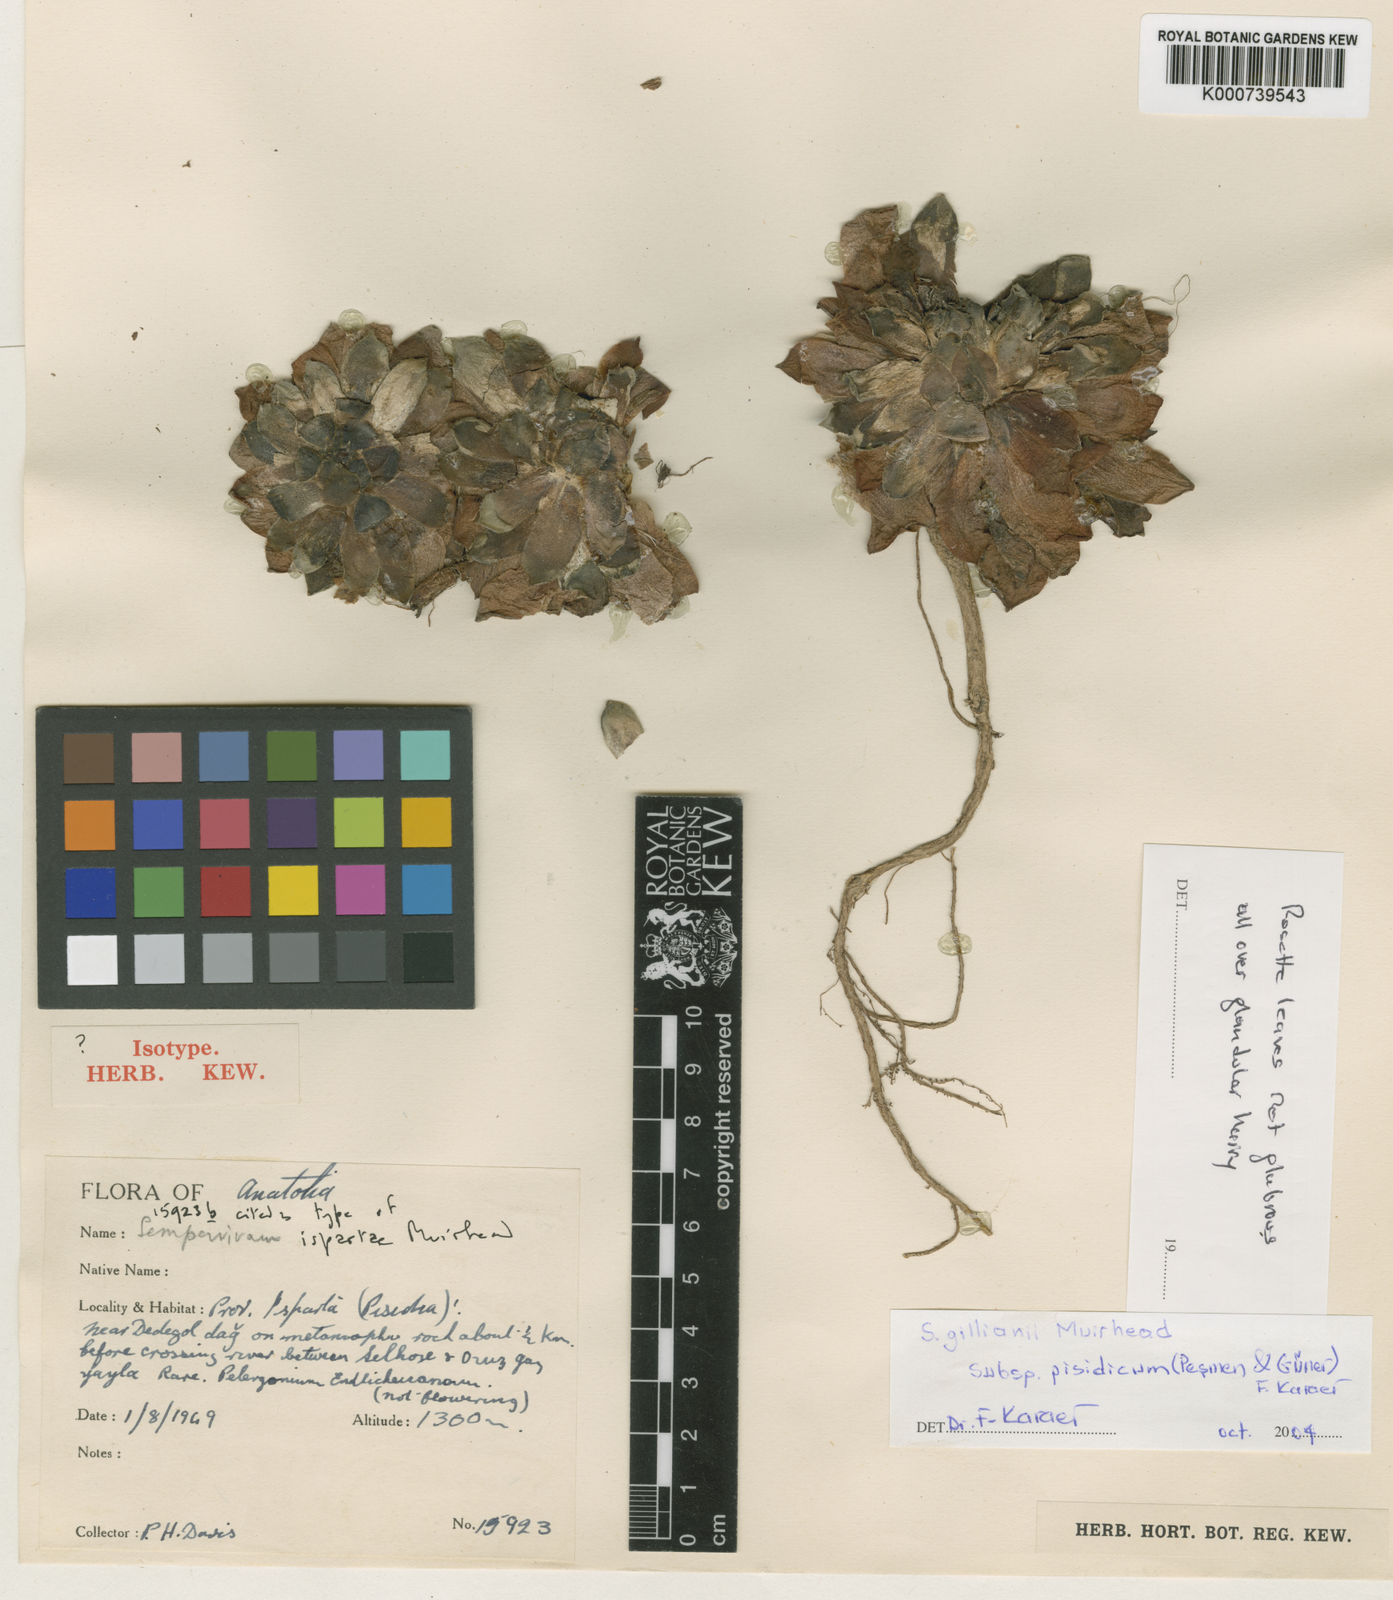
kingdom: Plantae
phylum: Tracheophyta
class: Magnoliopsida
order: Saxifragales
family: Crassulaceae
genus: Sempervivum
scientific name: Sempervivum ispartae
